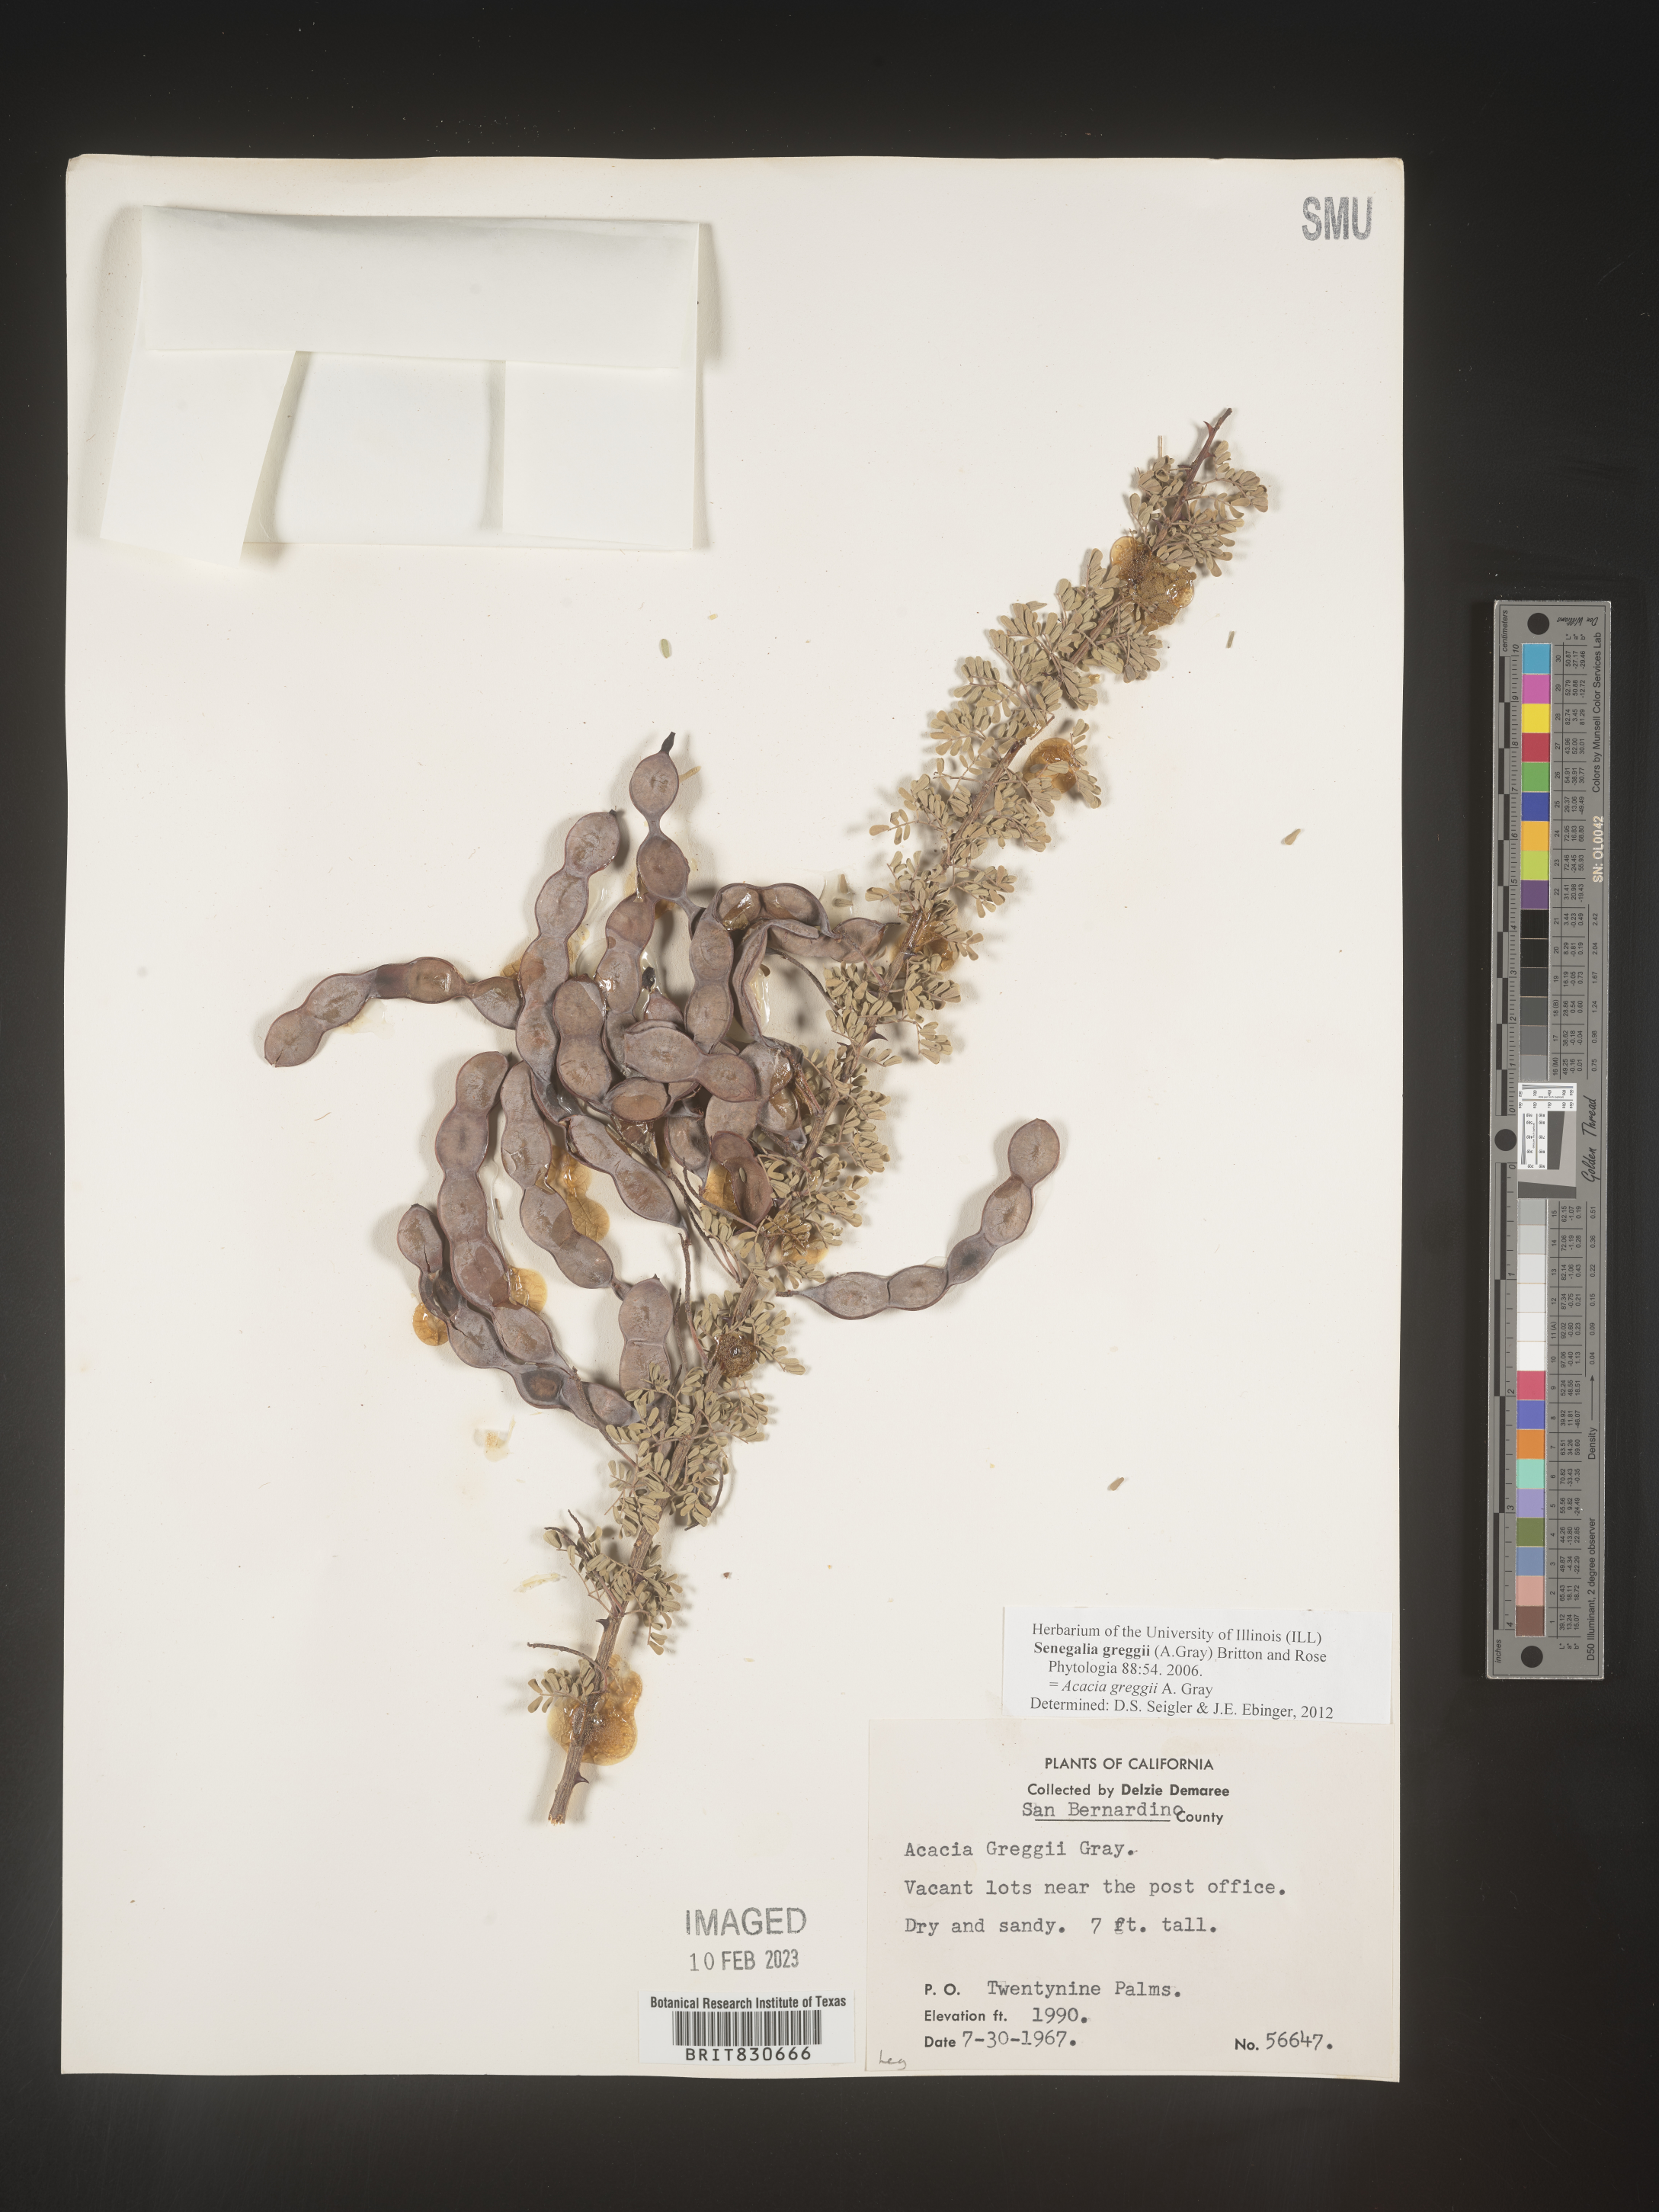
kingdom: Plantae
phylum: Tracheophyta
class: Magnoliopsida
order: Fabales
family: Fabaceae
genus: Senegalia
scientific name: Senegalia greggii
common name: Texas-mimosa
